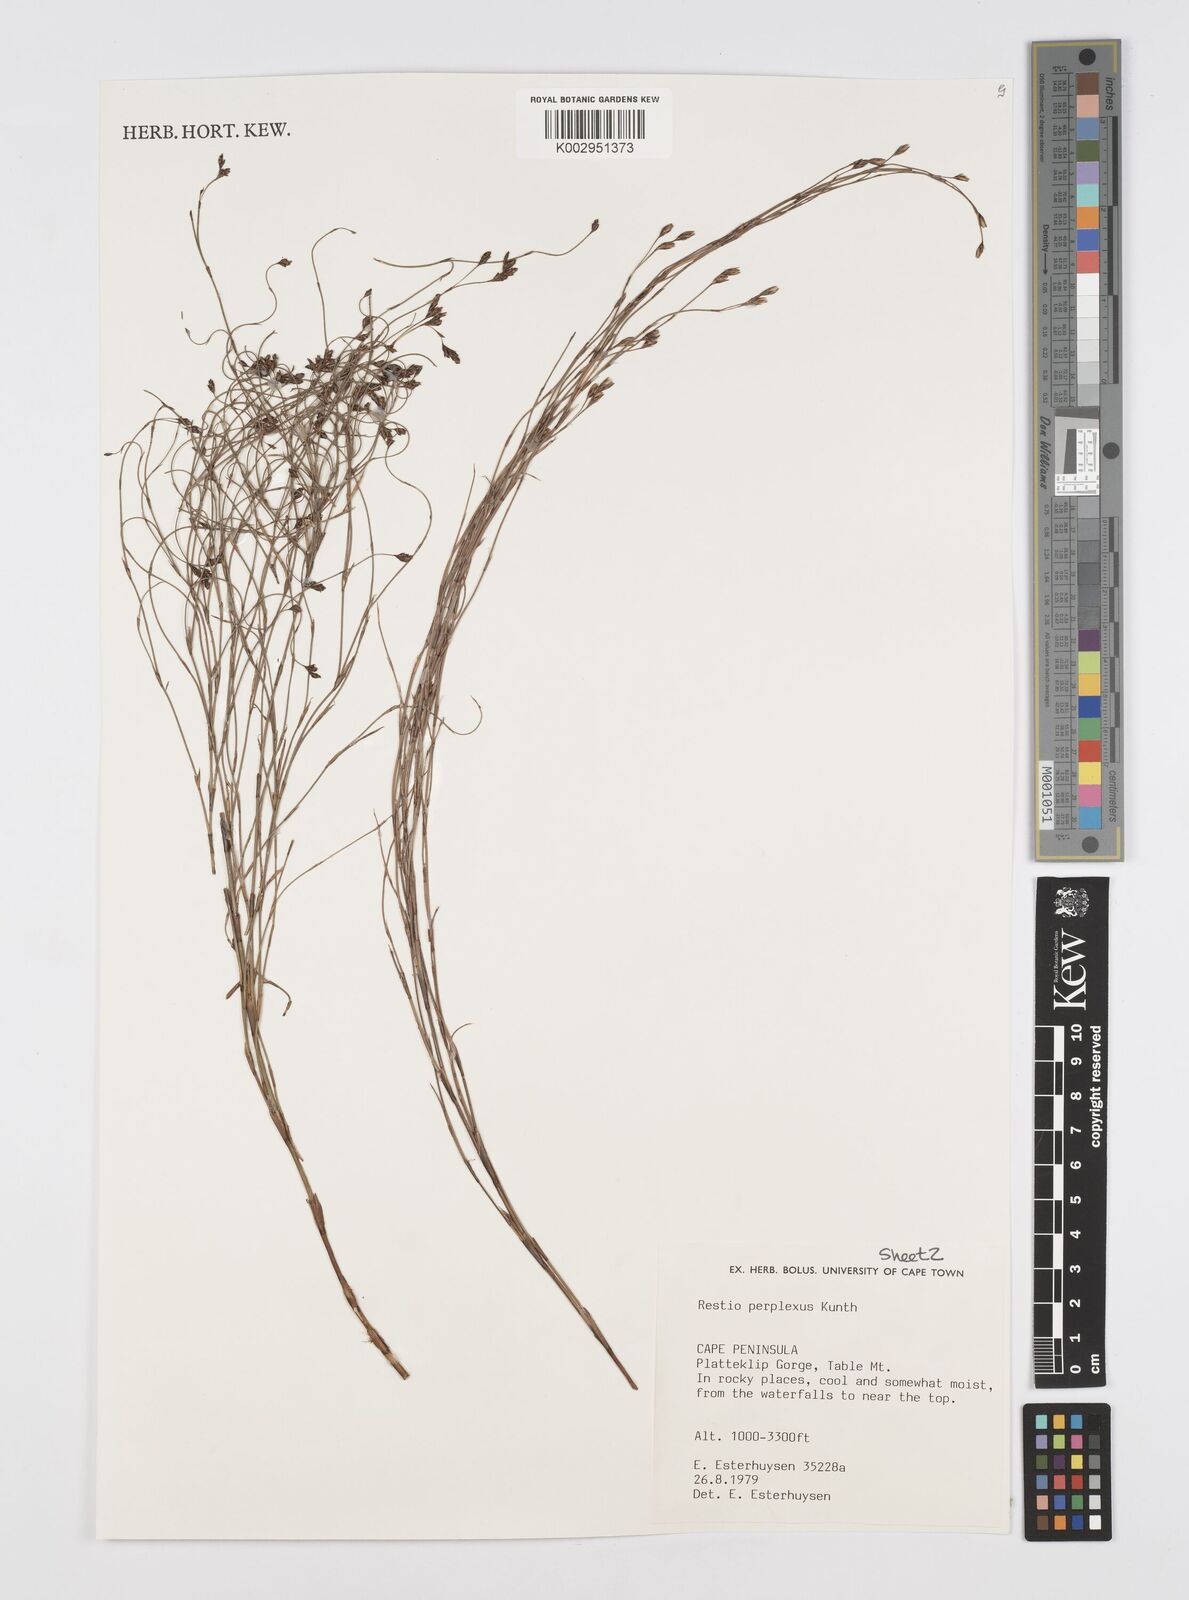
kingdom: Plantae
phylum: Tracheophyta
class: Liliopsida
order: Poales
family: Restionaceae
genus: Restio
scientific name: Restio perplexus
